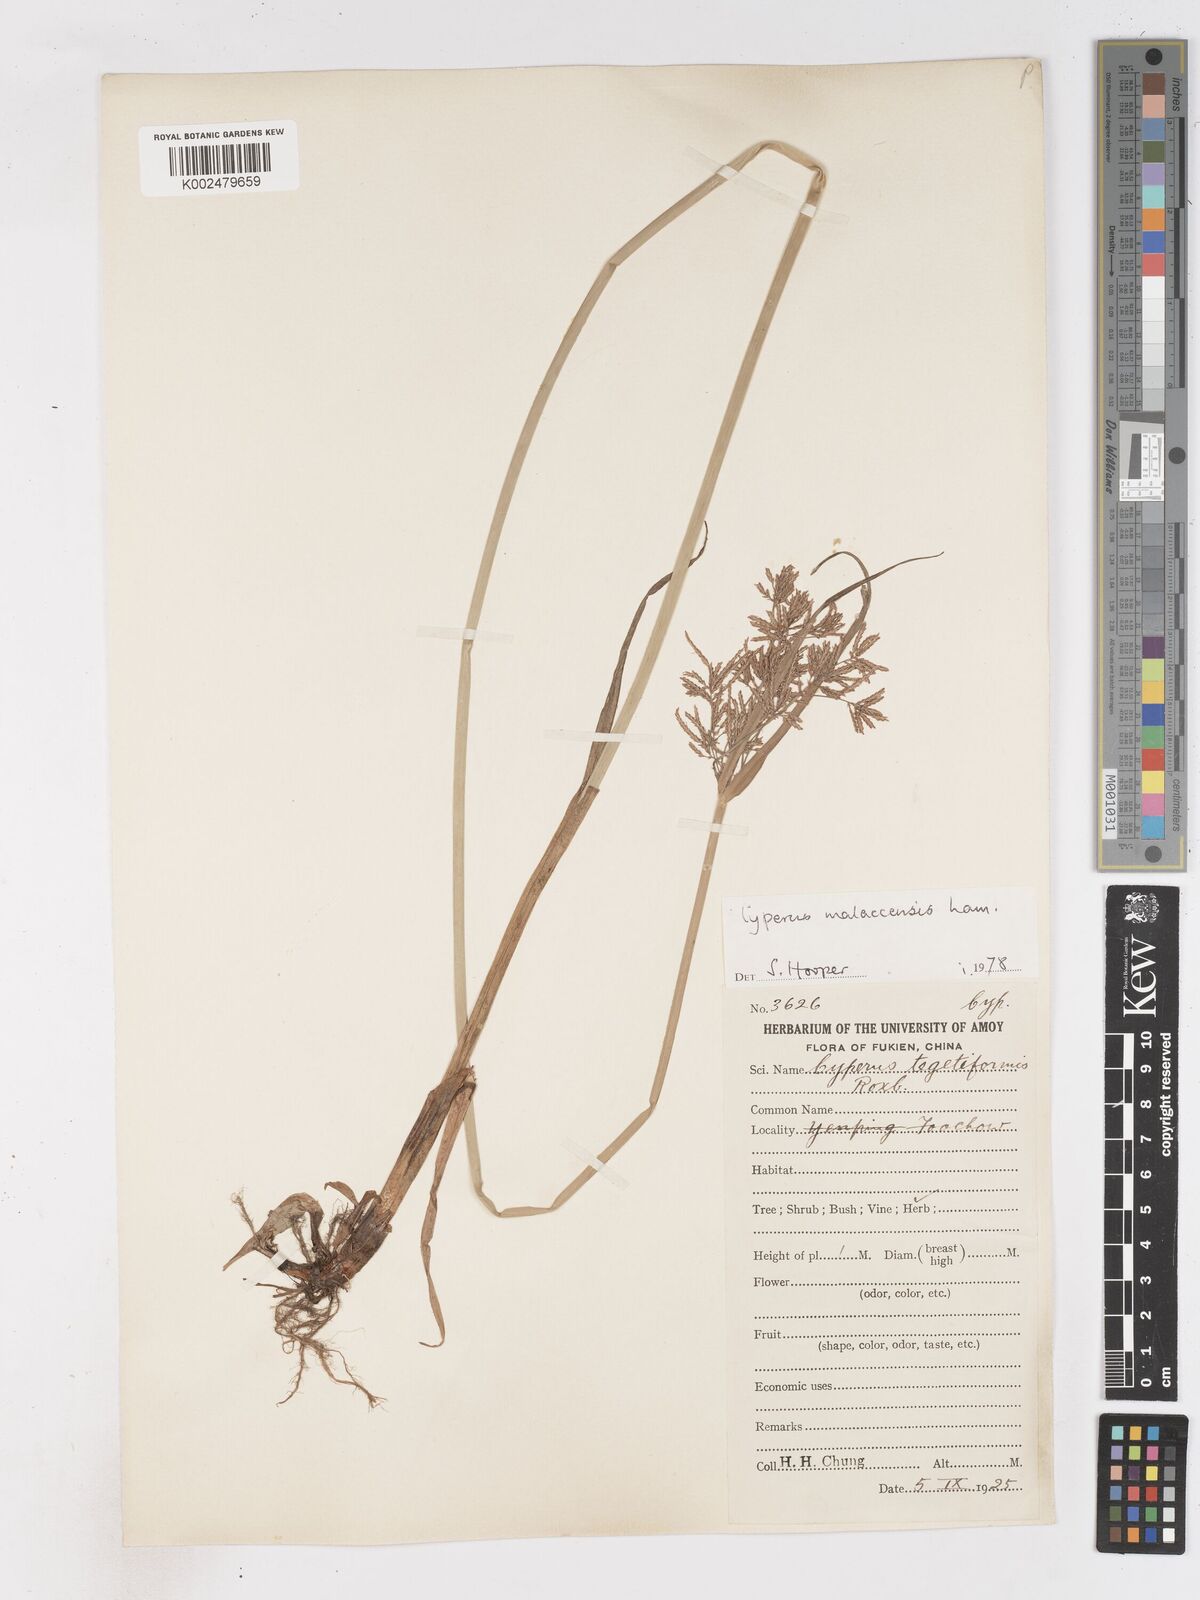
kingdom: Plantae
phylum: Tracheophyta
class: Liliopsida
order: Poales
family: Cyperaceae
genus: Cyperus
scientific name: Cyperus malaccensis
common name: Shichito matgrass
